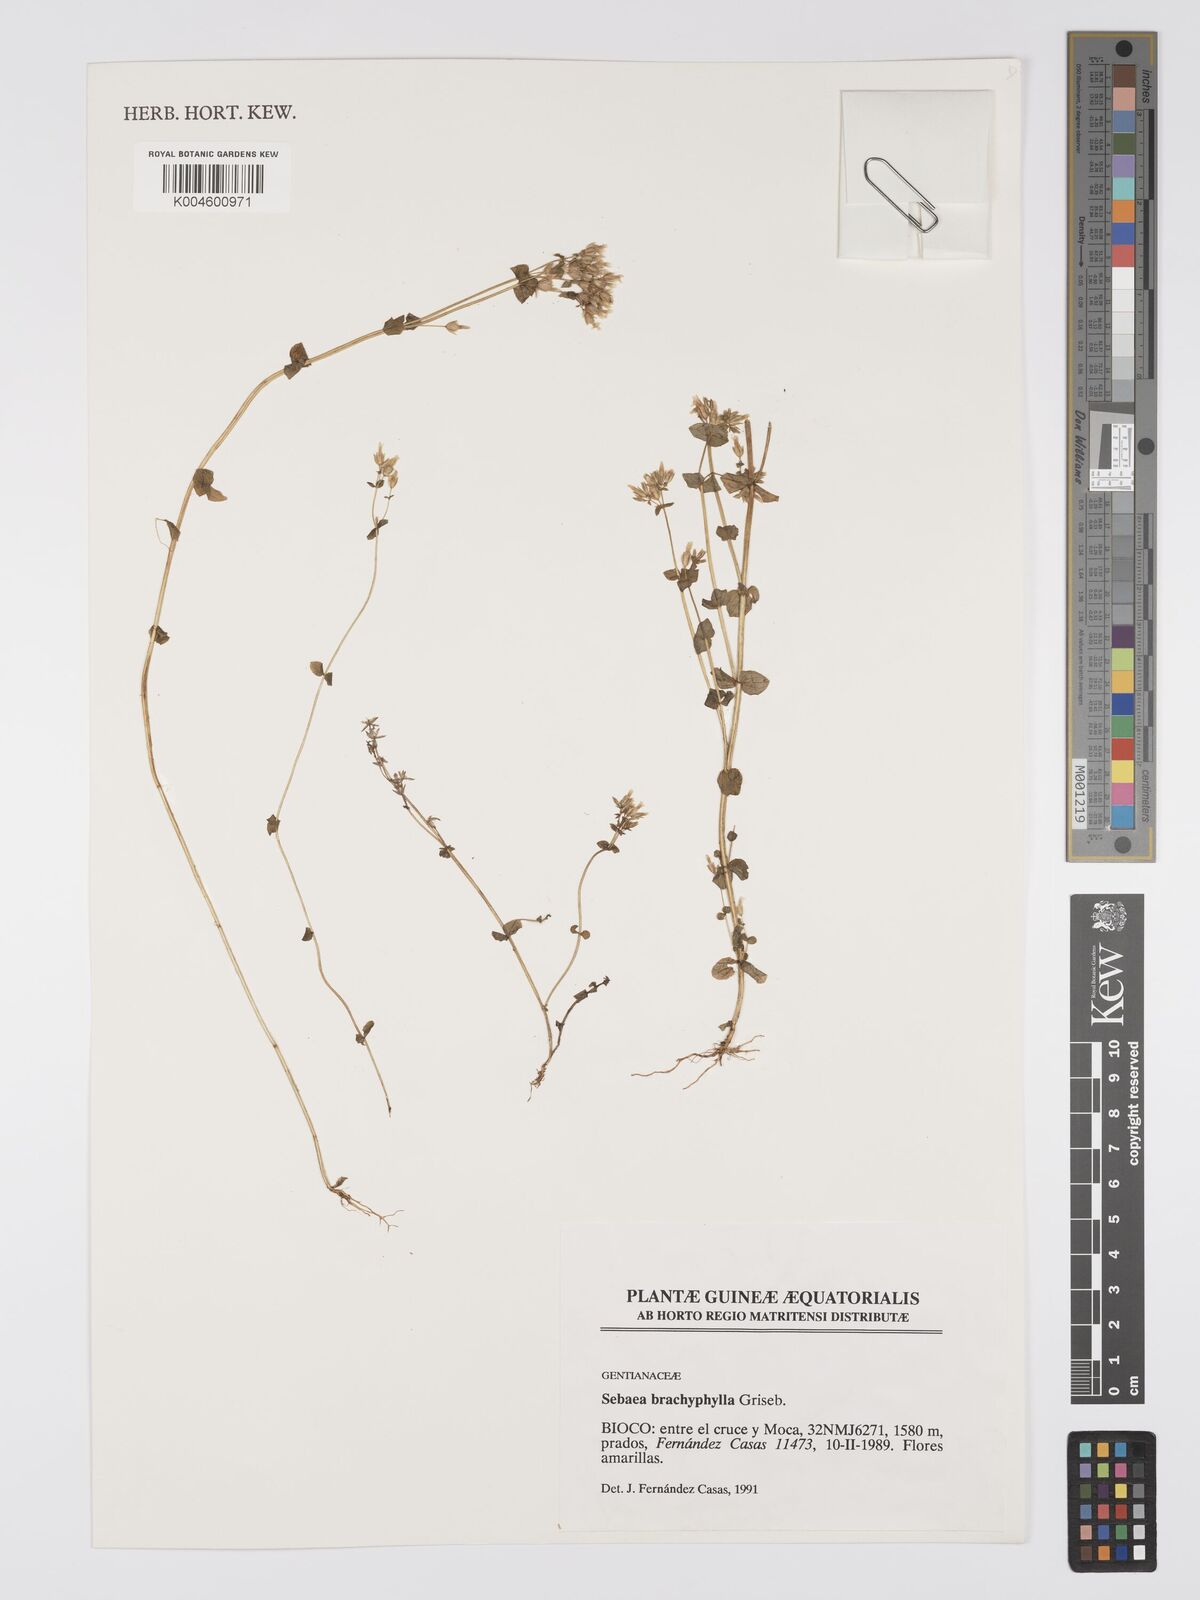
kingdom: Plantae
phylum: Tracheophyta
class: Magnoliopsida
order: Gentianales
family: Gentianaceae
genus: Sebaea
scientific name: Sebaea brachyphylla
